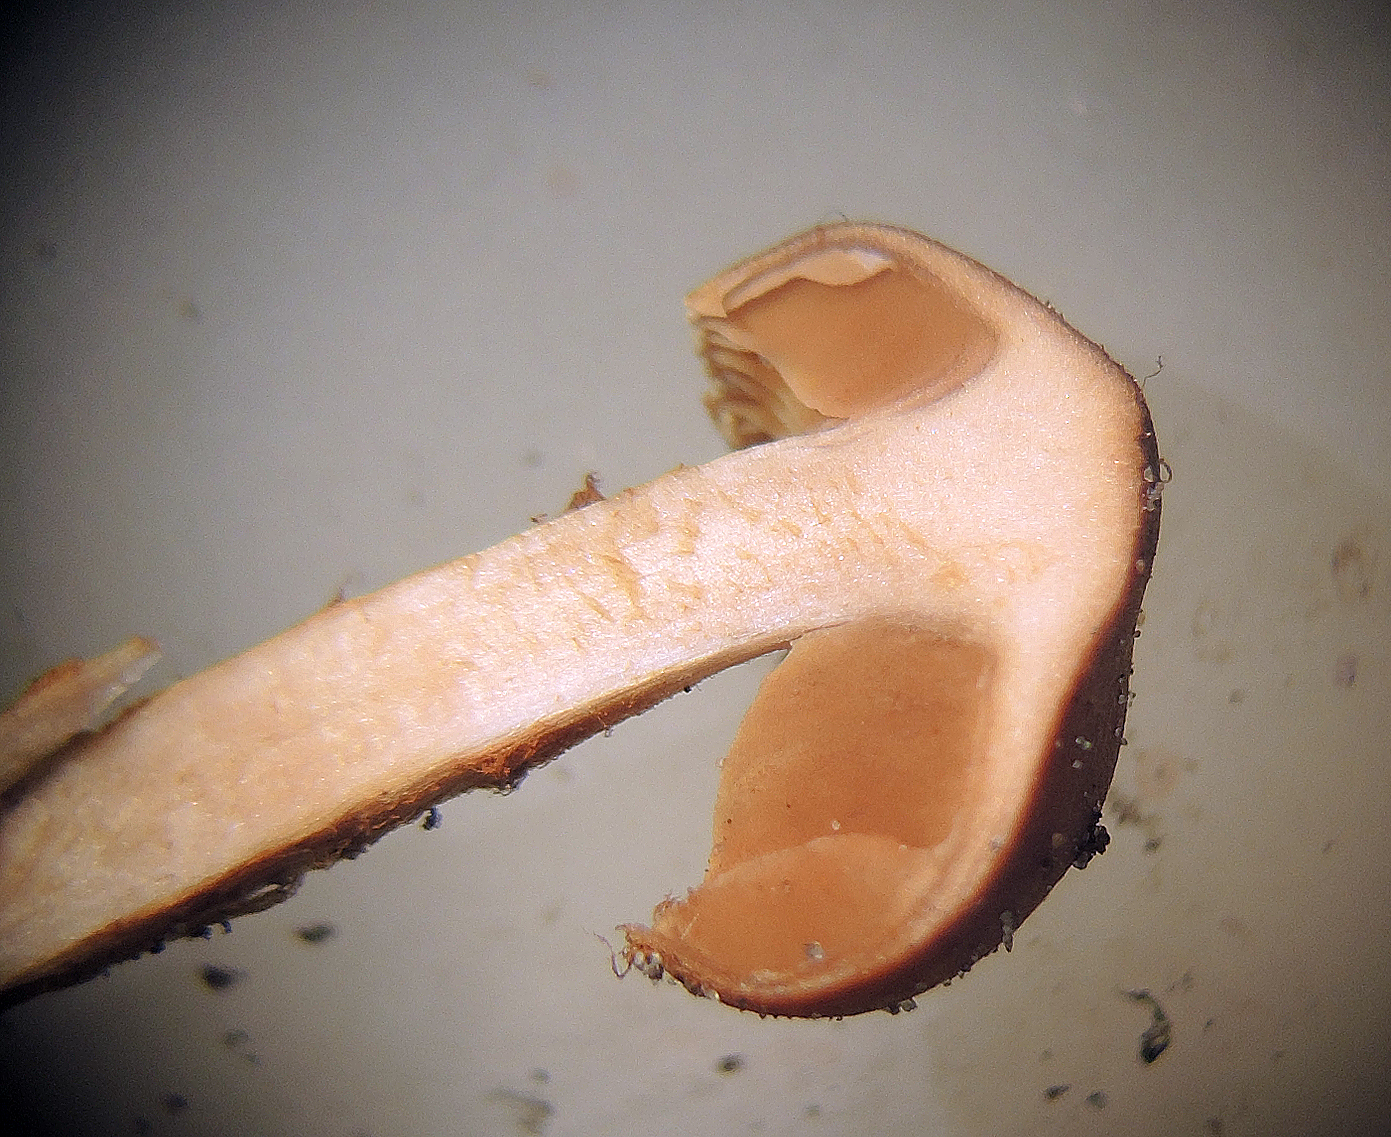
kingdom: Fungi
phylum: Basidiomycota
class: Agaricomycetes
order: Agaricales
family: Cortinariaceae
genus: Cortinarius
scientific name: Cortinarius saniosus
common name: gultrævlet slørhat
